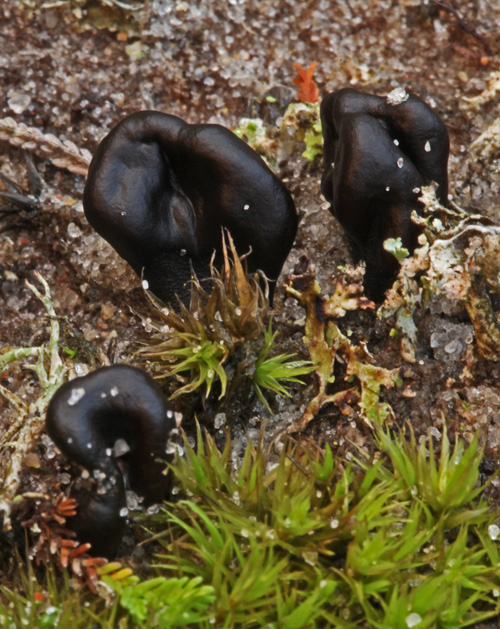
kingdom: Fungi
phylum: Ascomycota
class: Geoglossomycetes
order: Geoglossales
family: Geoglossaceae
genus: Sabuloglossum
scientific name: Sabuloglossum arenarium
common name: klit-jordtunge
